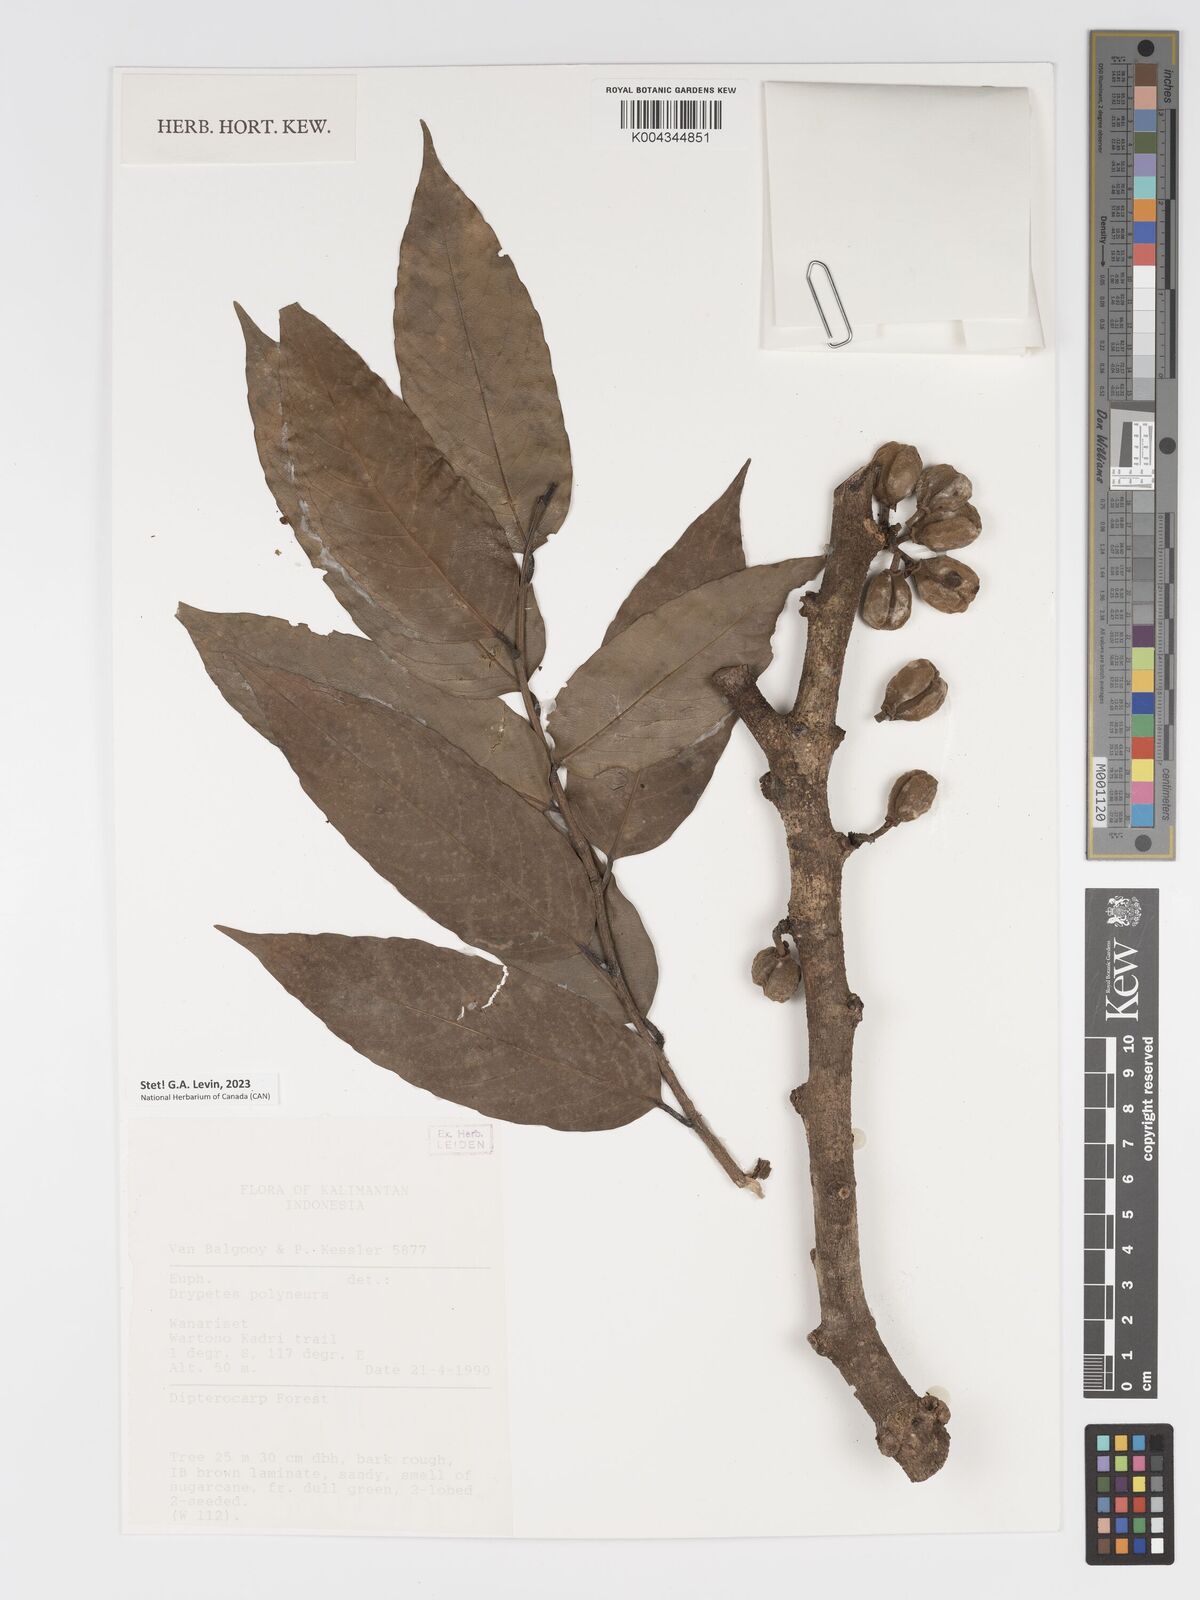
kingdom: Plantae
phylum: Tracheophyta
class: Magnoliopsida
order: Malpighiales
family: Putranjivaceae
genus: Drypetes
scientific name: Drypetes polyneura
